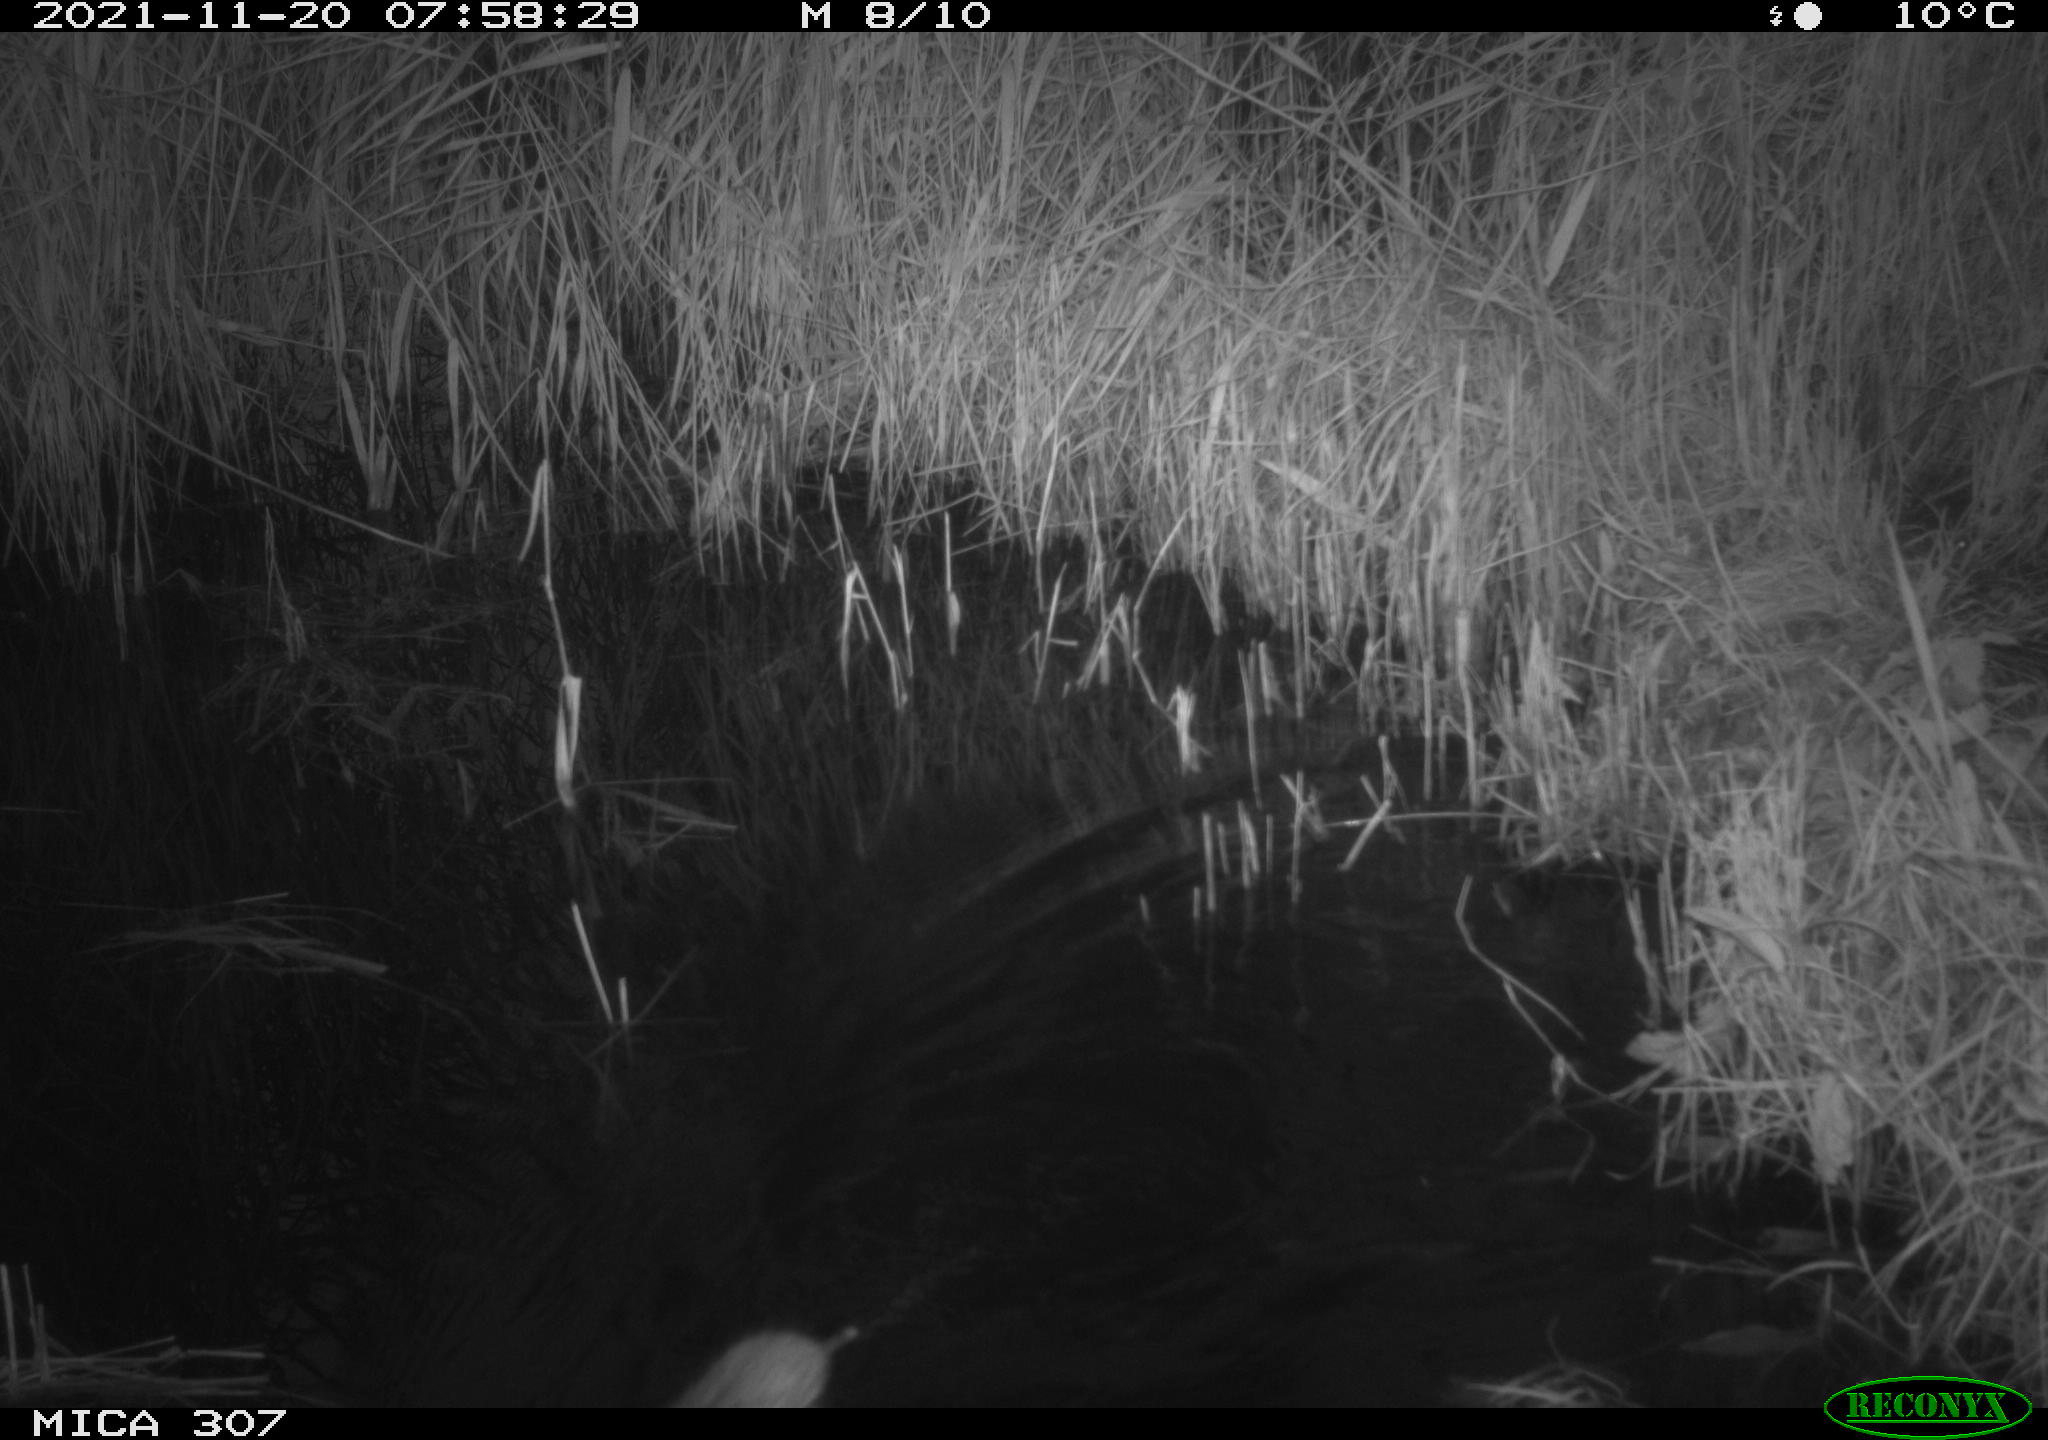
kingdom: Animalia
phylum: Chordata
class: Mammalia
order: Rodentia
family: Muridae
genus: Rattus
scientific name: Rattus norvegicus
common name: Brown rat
